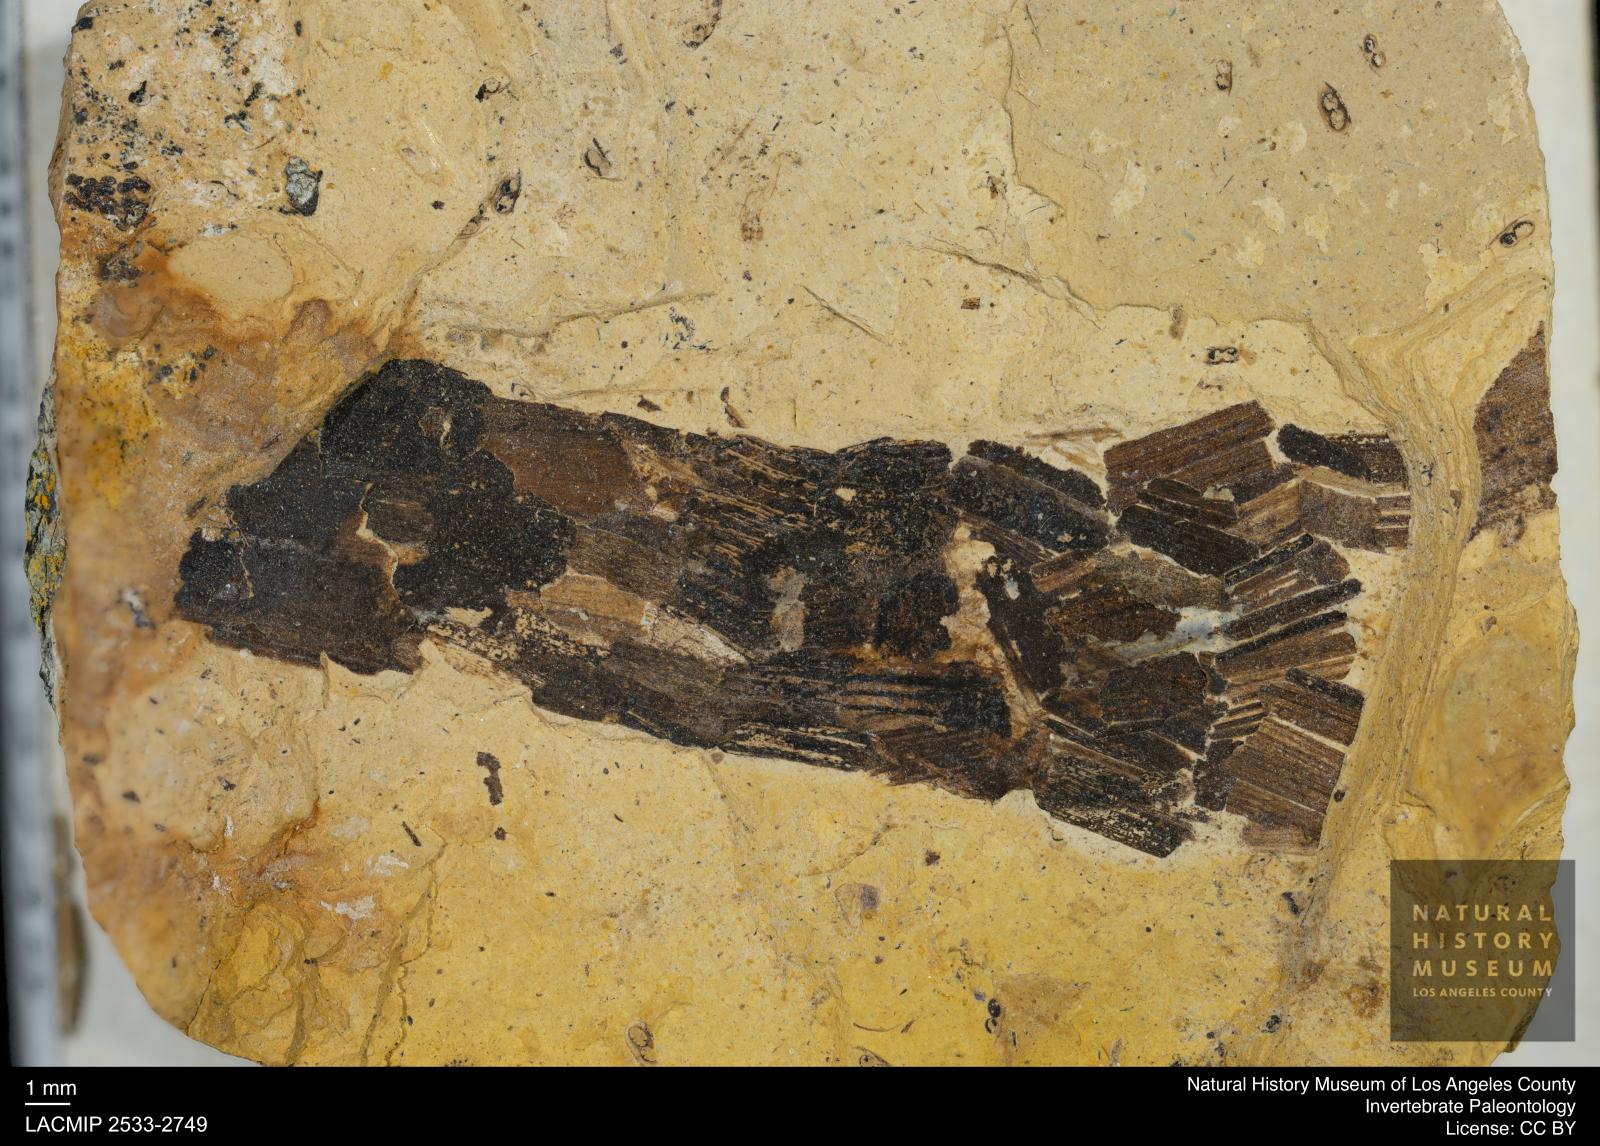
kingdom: Animalia
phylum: Arthropoda
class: Insecta
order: Trichoptera
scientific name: Trichoptera
